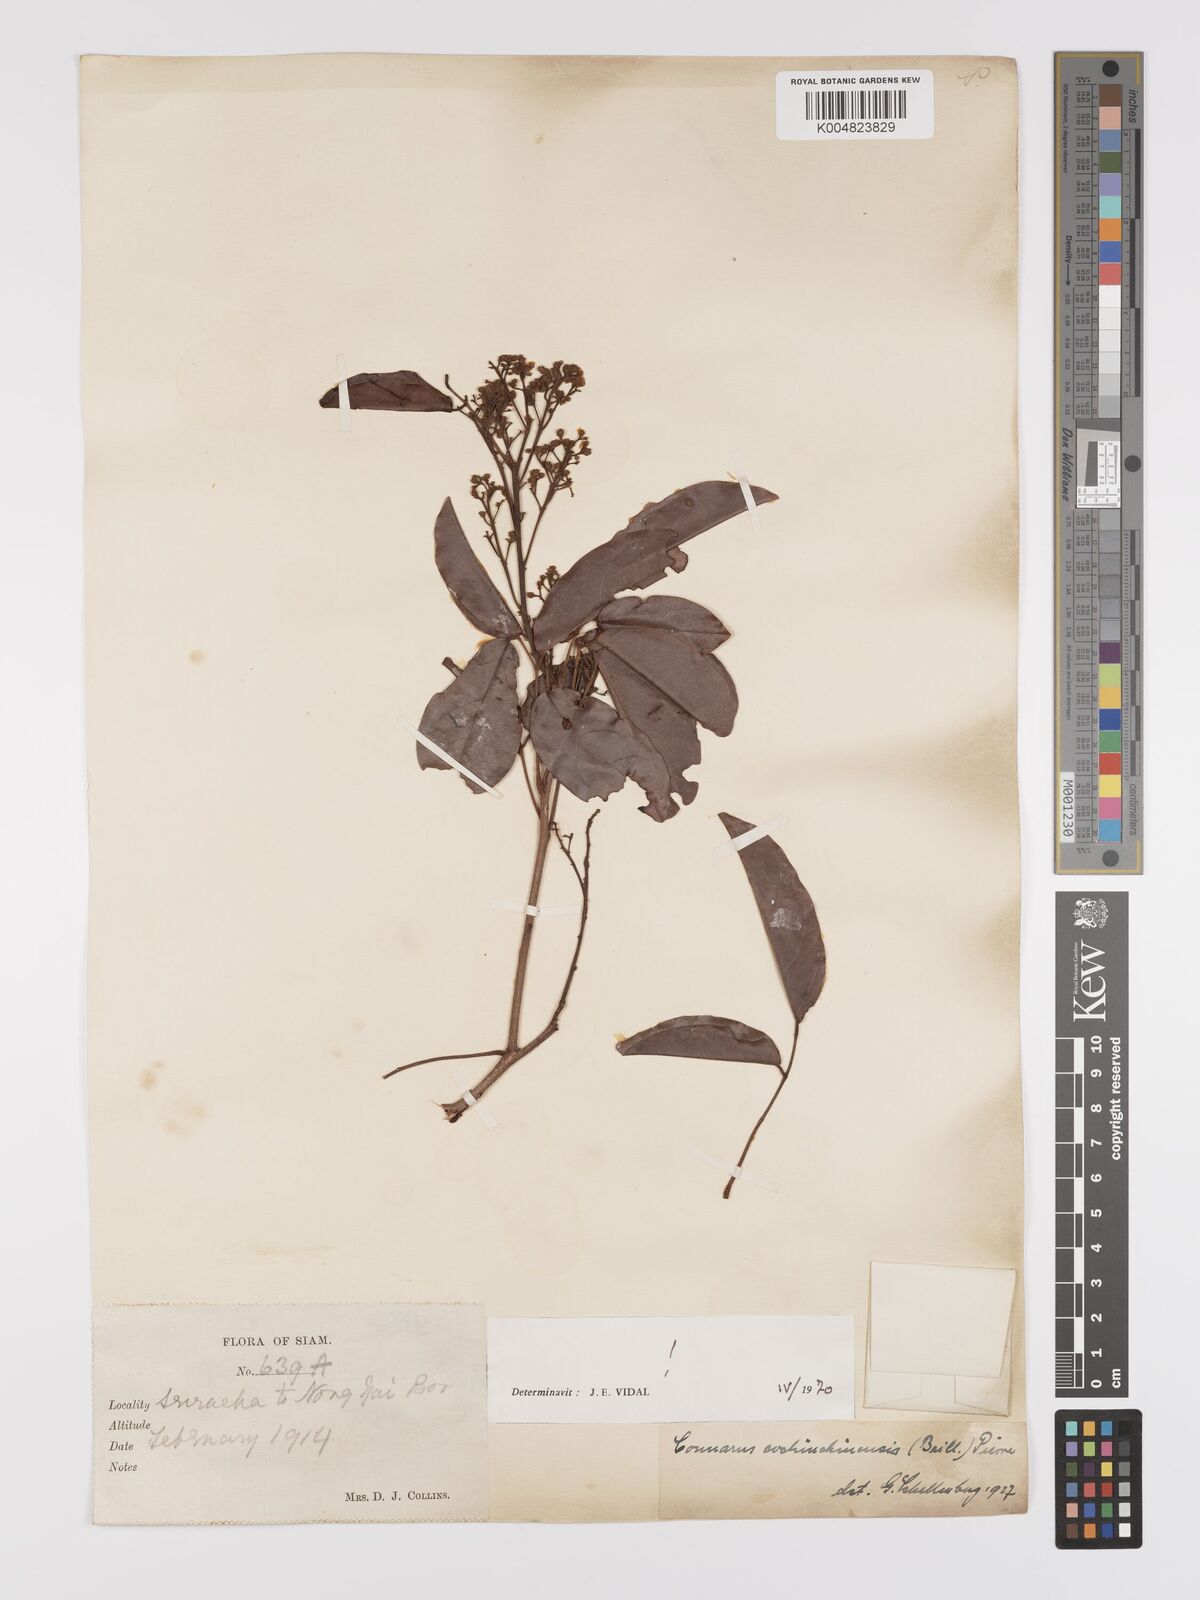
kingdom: Plantae
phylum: Tracheophyta
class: Magnoliopsida
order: Oxalidales
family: Connaraceae
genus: Connarus
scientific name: Connarus cochinchinensis
